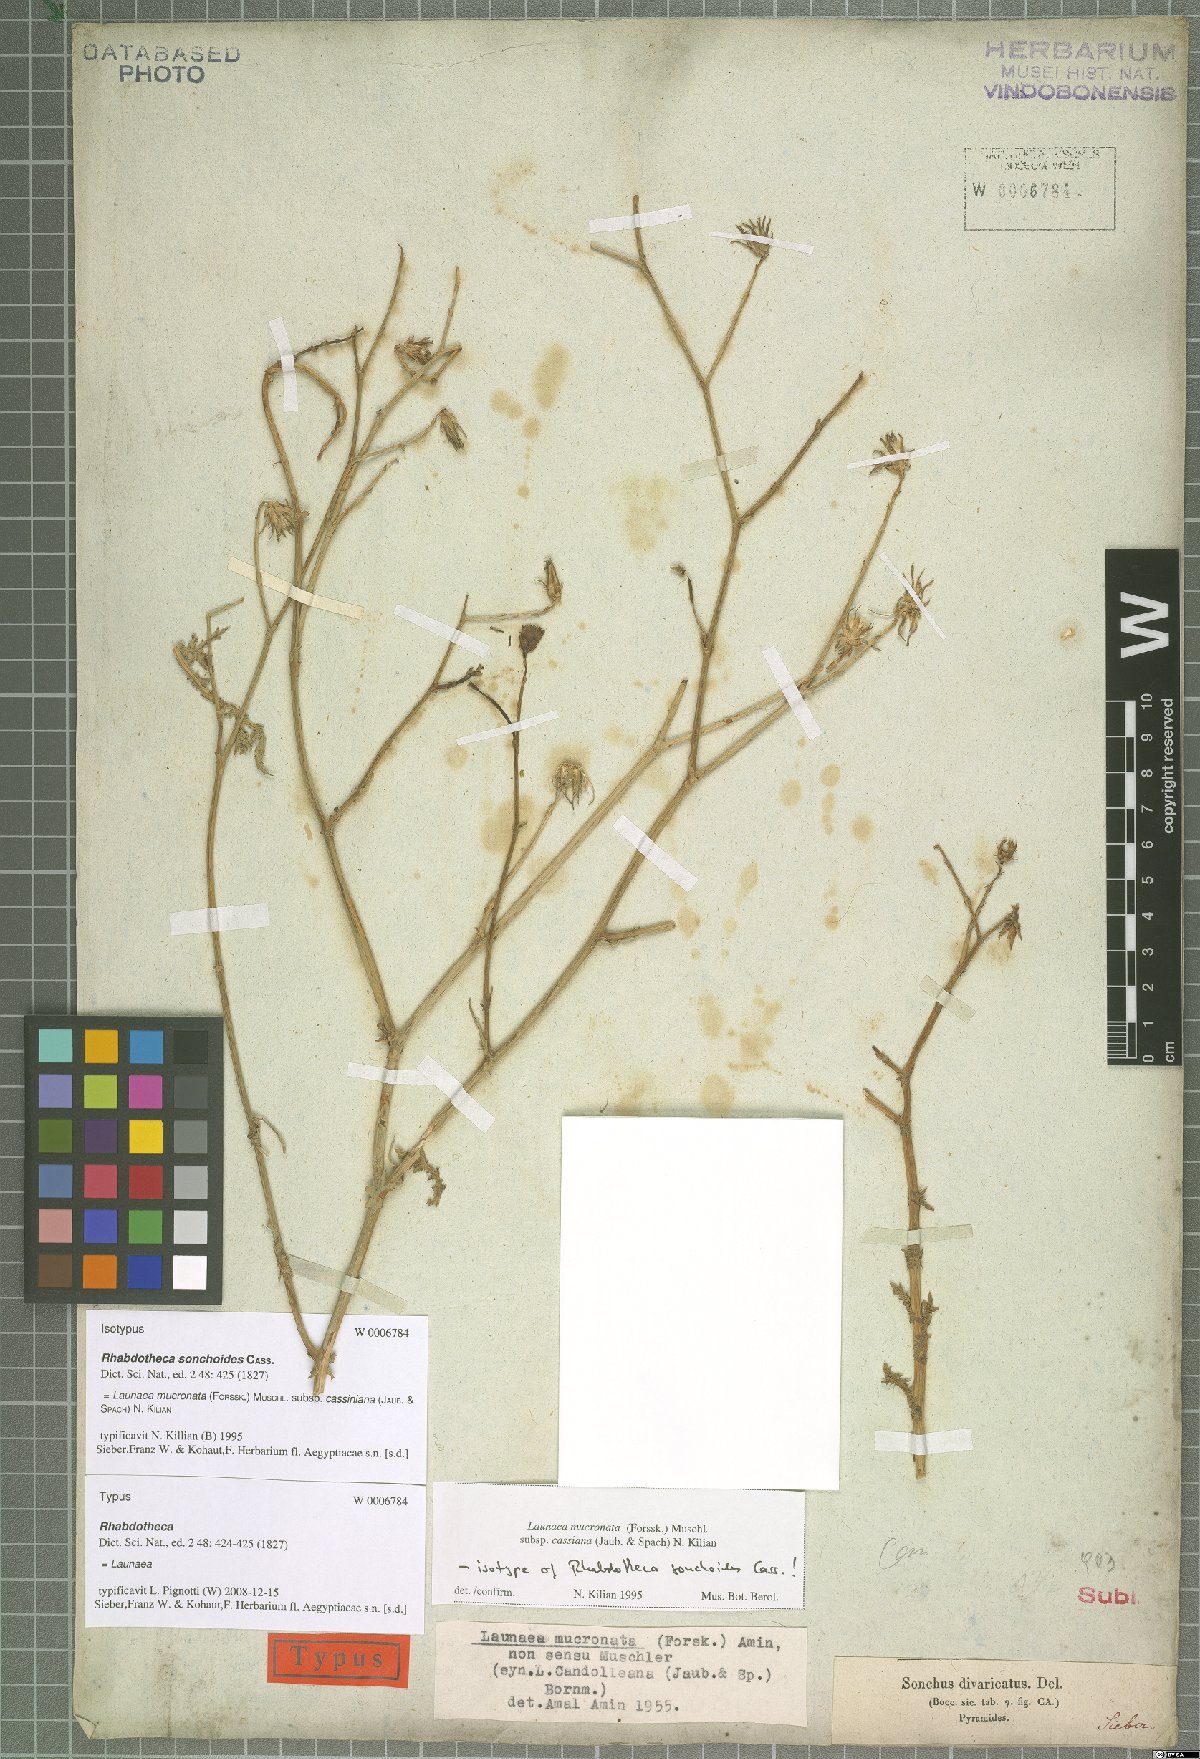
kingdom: Plantae
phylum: Tracheophyta
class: Magnoliopsida
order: Asterales
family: Asteraceae
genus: Launaea
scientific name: Launaea mucronata
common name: Mucronate launea
